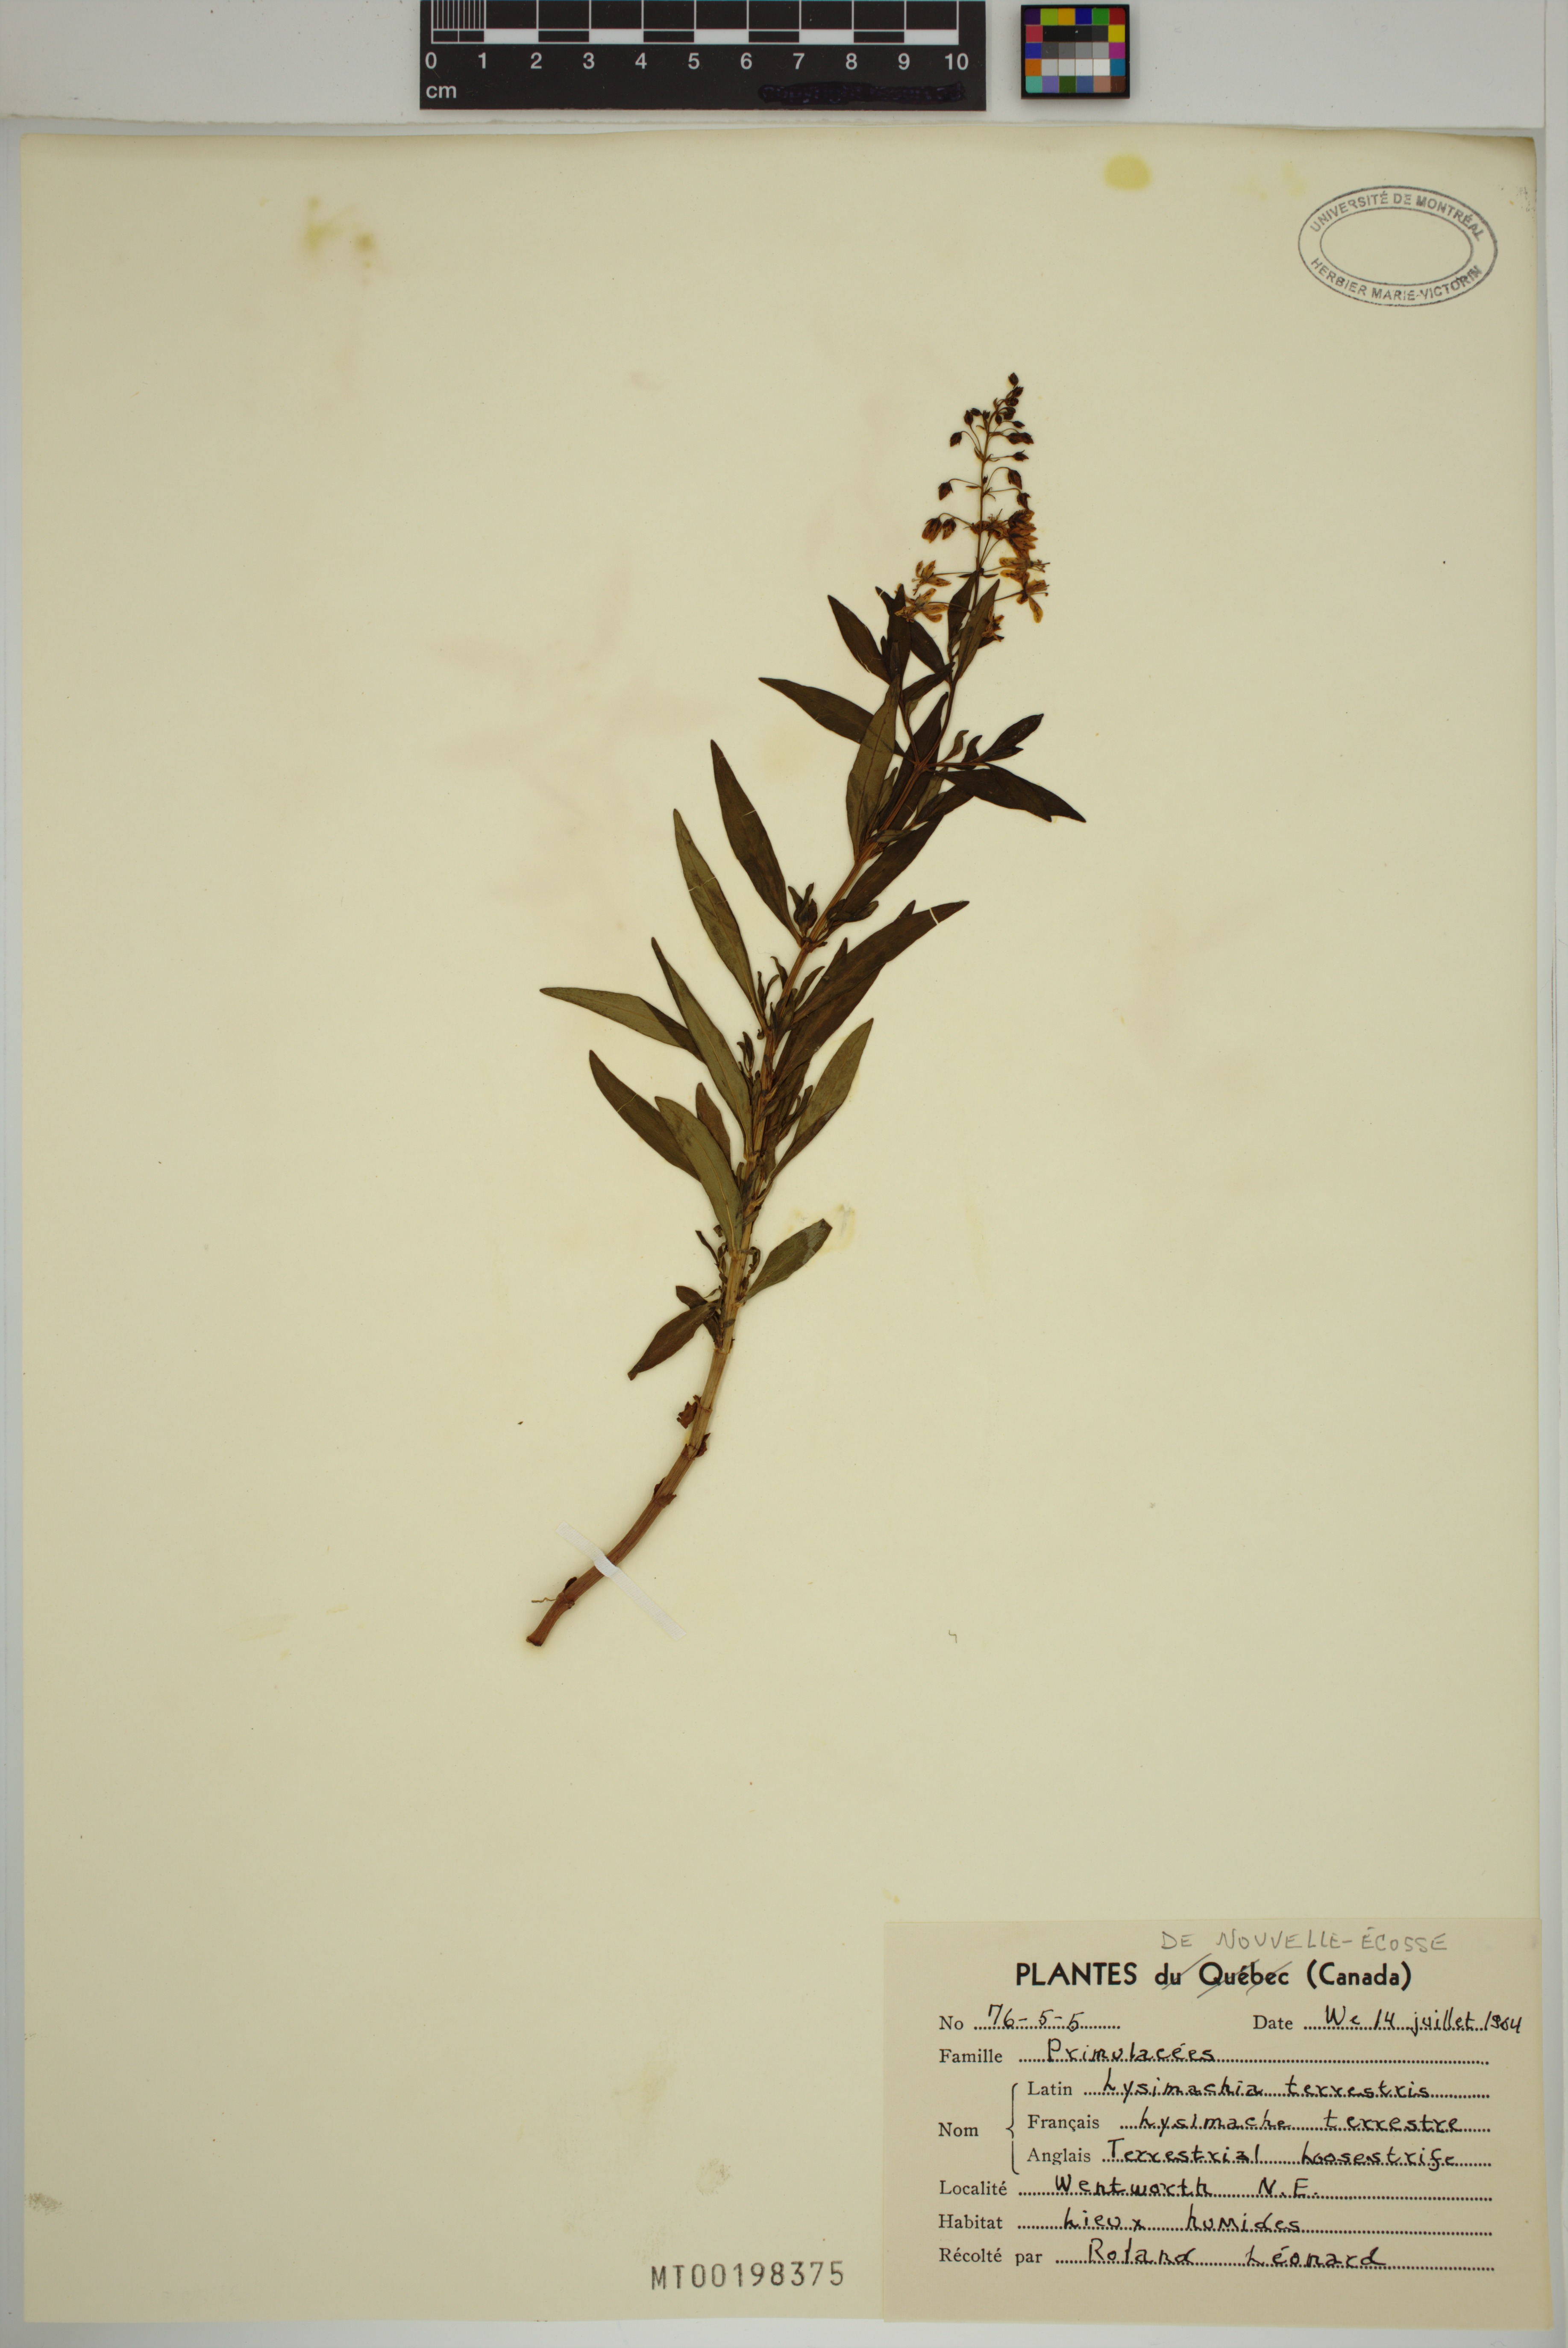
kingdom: Plantae
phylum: Tracheophyta
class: Magnoliopsida
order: Ericales
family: Primulaceae
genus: Lysimachia
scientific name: Lysimachia terrestris
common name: Lake loosestrife
